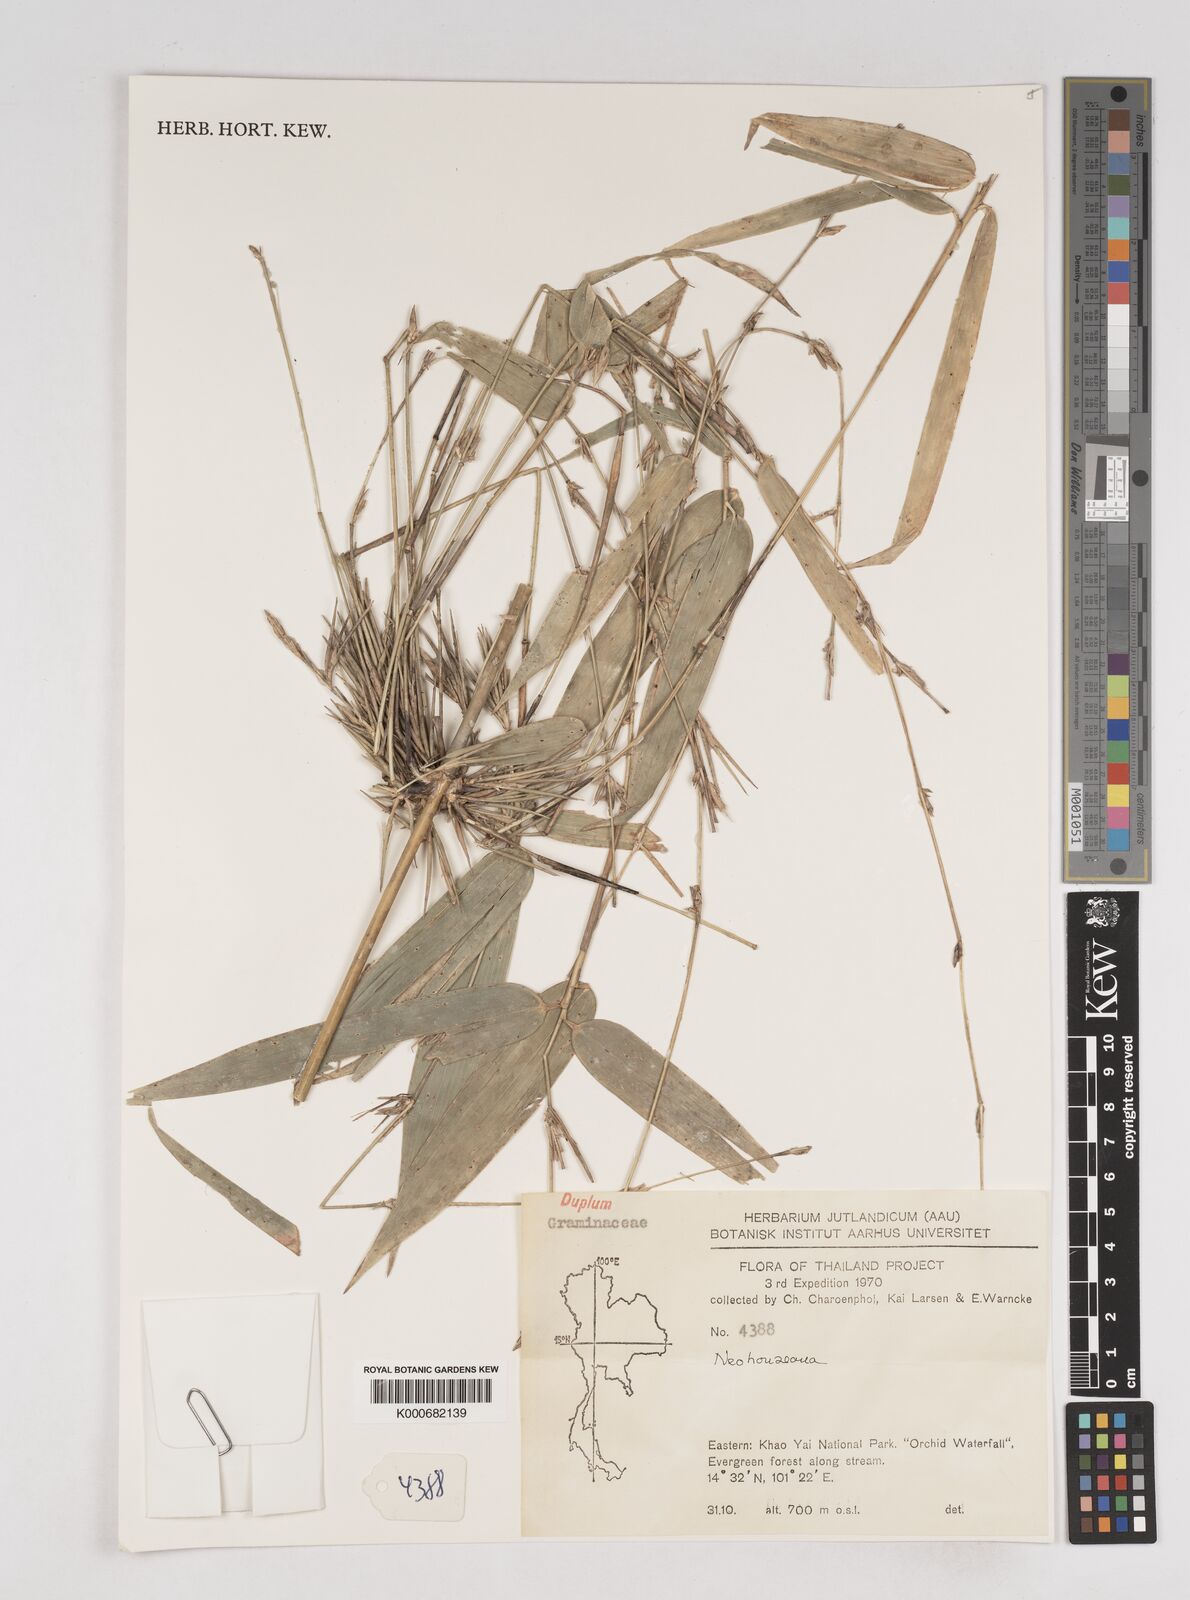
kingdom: Plantae
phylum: Tracheophyta
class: Liliopsida
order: Poales
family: Poaceae
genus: Schizostachyum
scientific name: Schizostachyum
